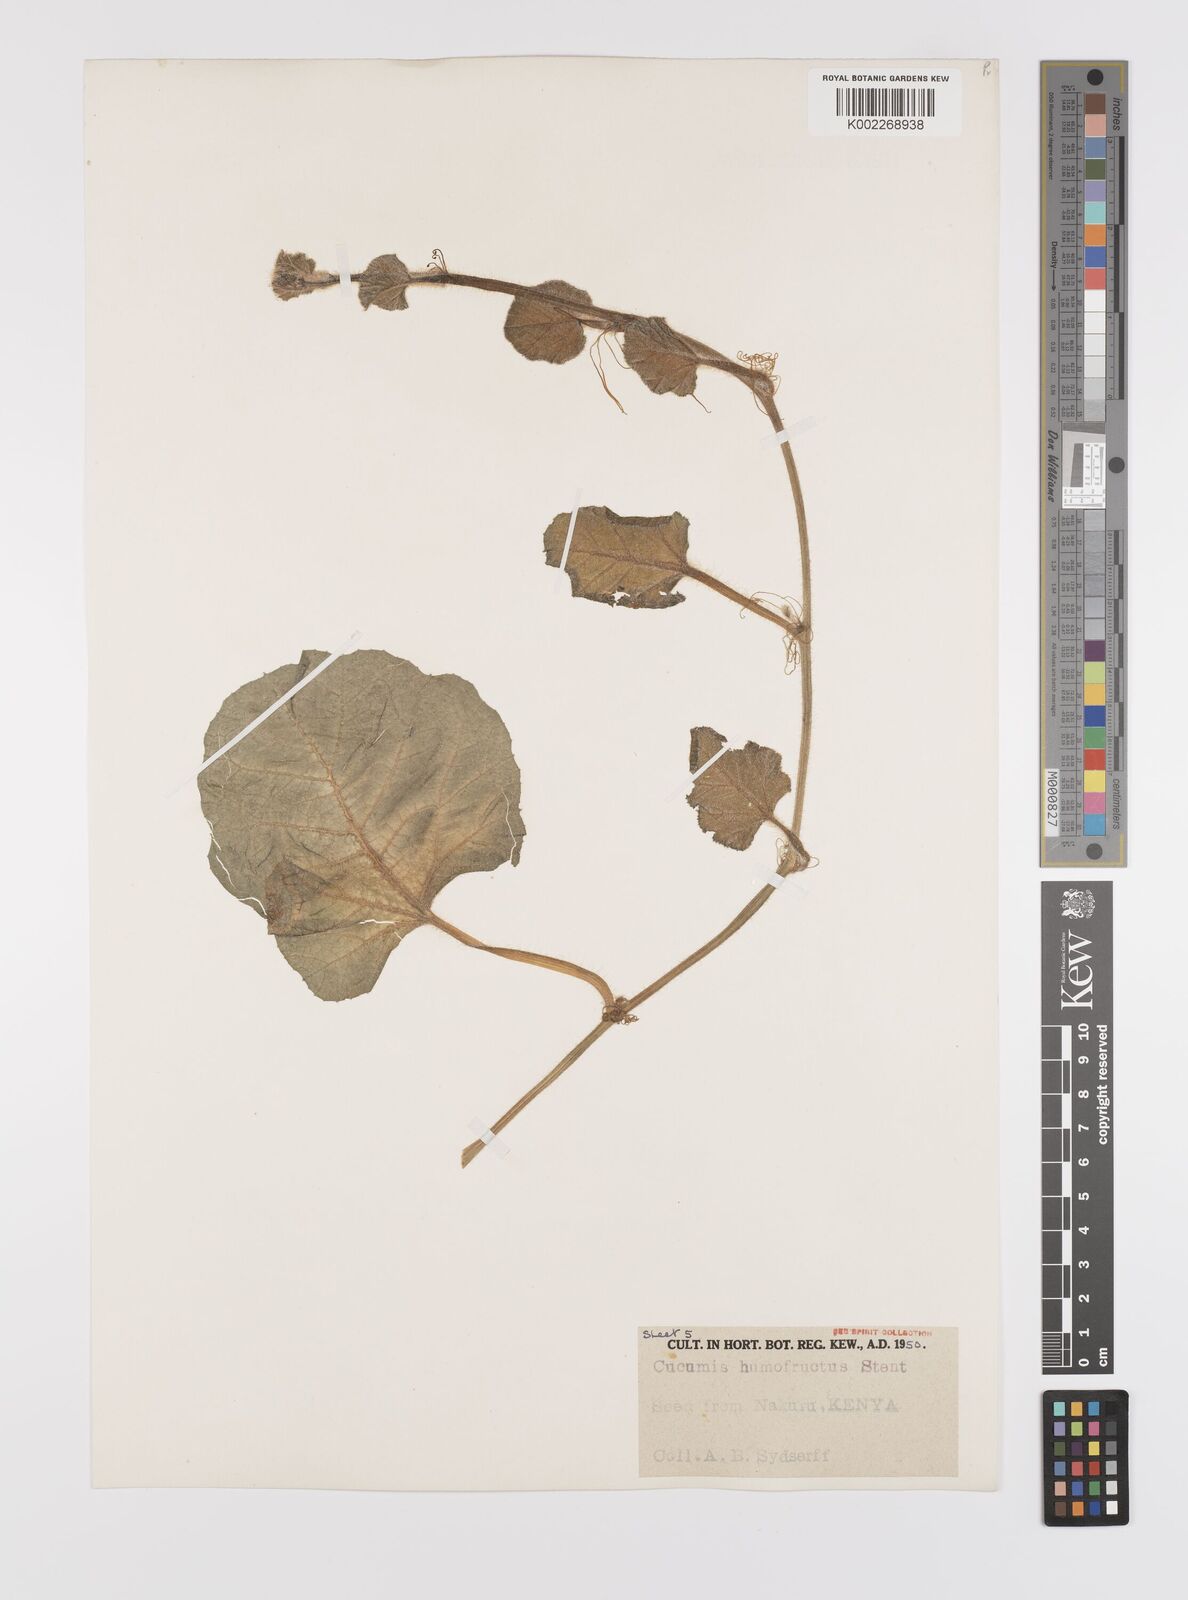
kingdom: Plantae
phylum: Tracheophyta
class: Magnoliopsida
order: Cucurbitales
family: Cucurbitaceae
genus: Cucumis
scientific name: Cucumis humofructus
